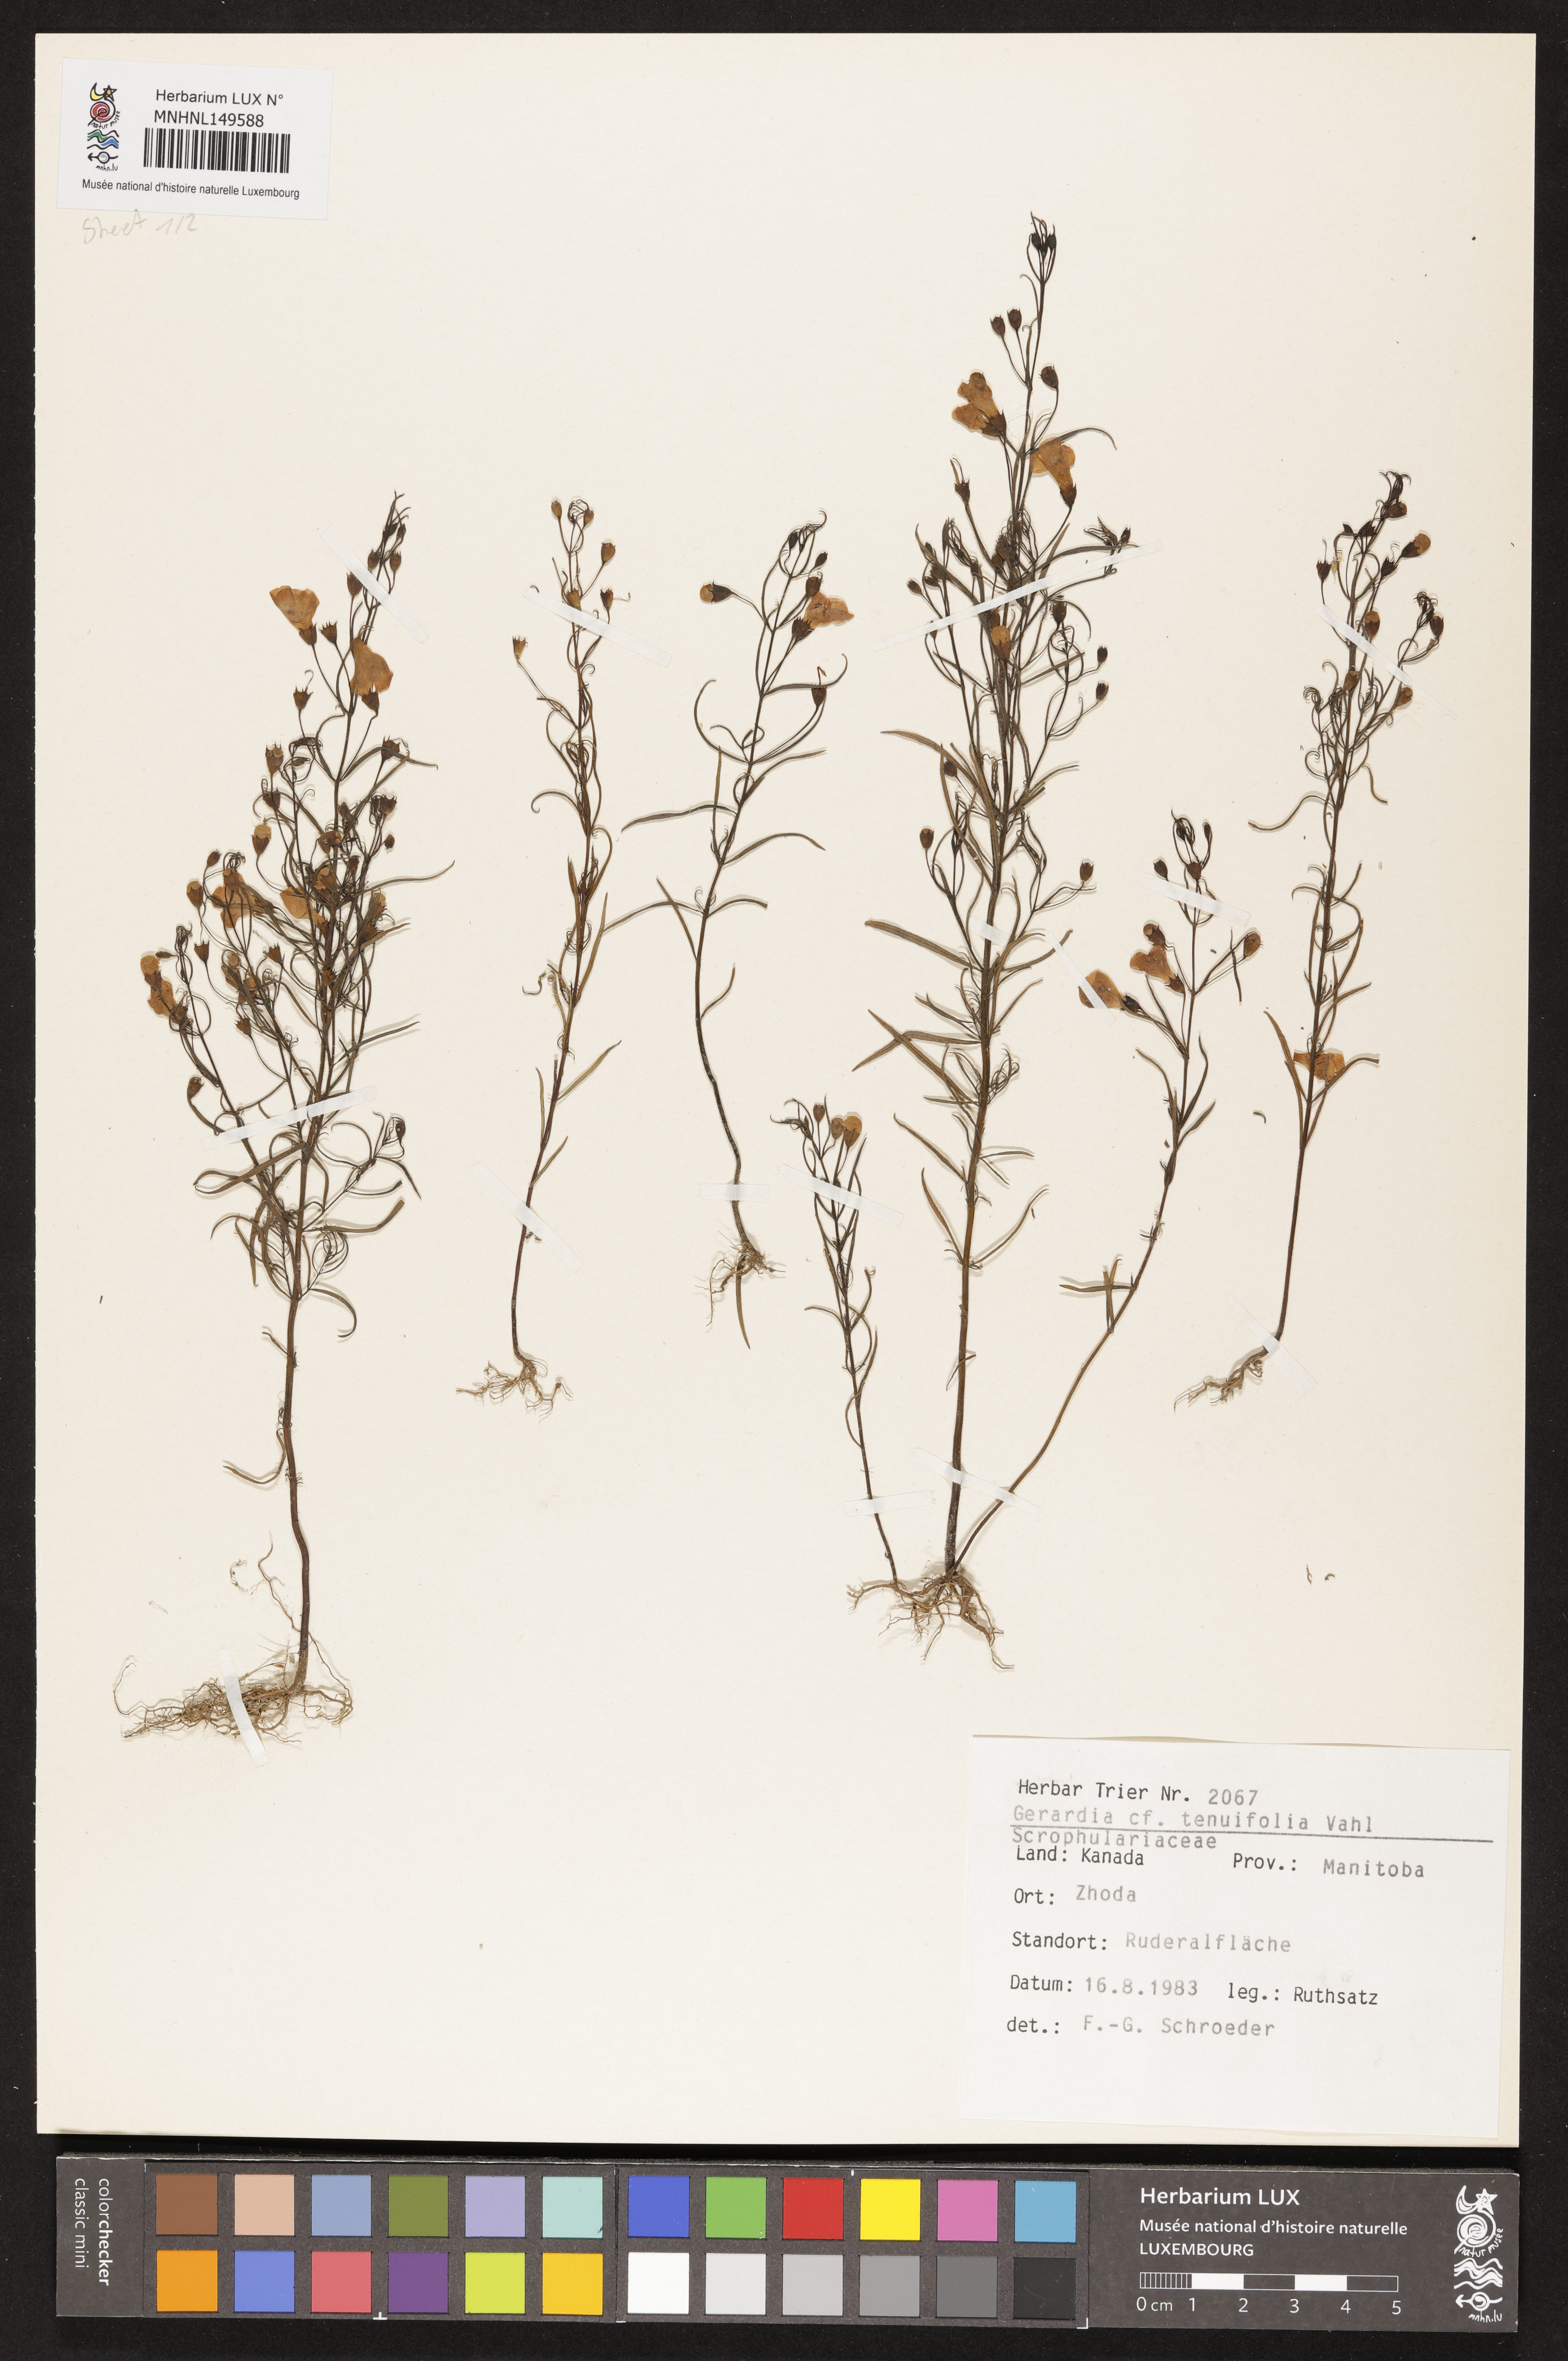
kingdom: Plantae
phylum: Tracheophyta
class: Magnoliopsida
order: Lamiales
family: Orobanchaceae
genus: Agalinis
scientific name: Agalinis tenuifolia
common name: Slender agalinis
